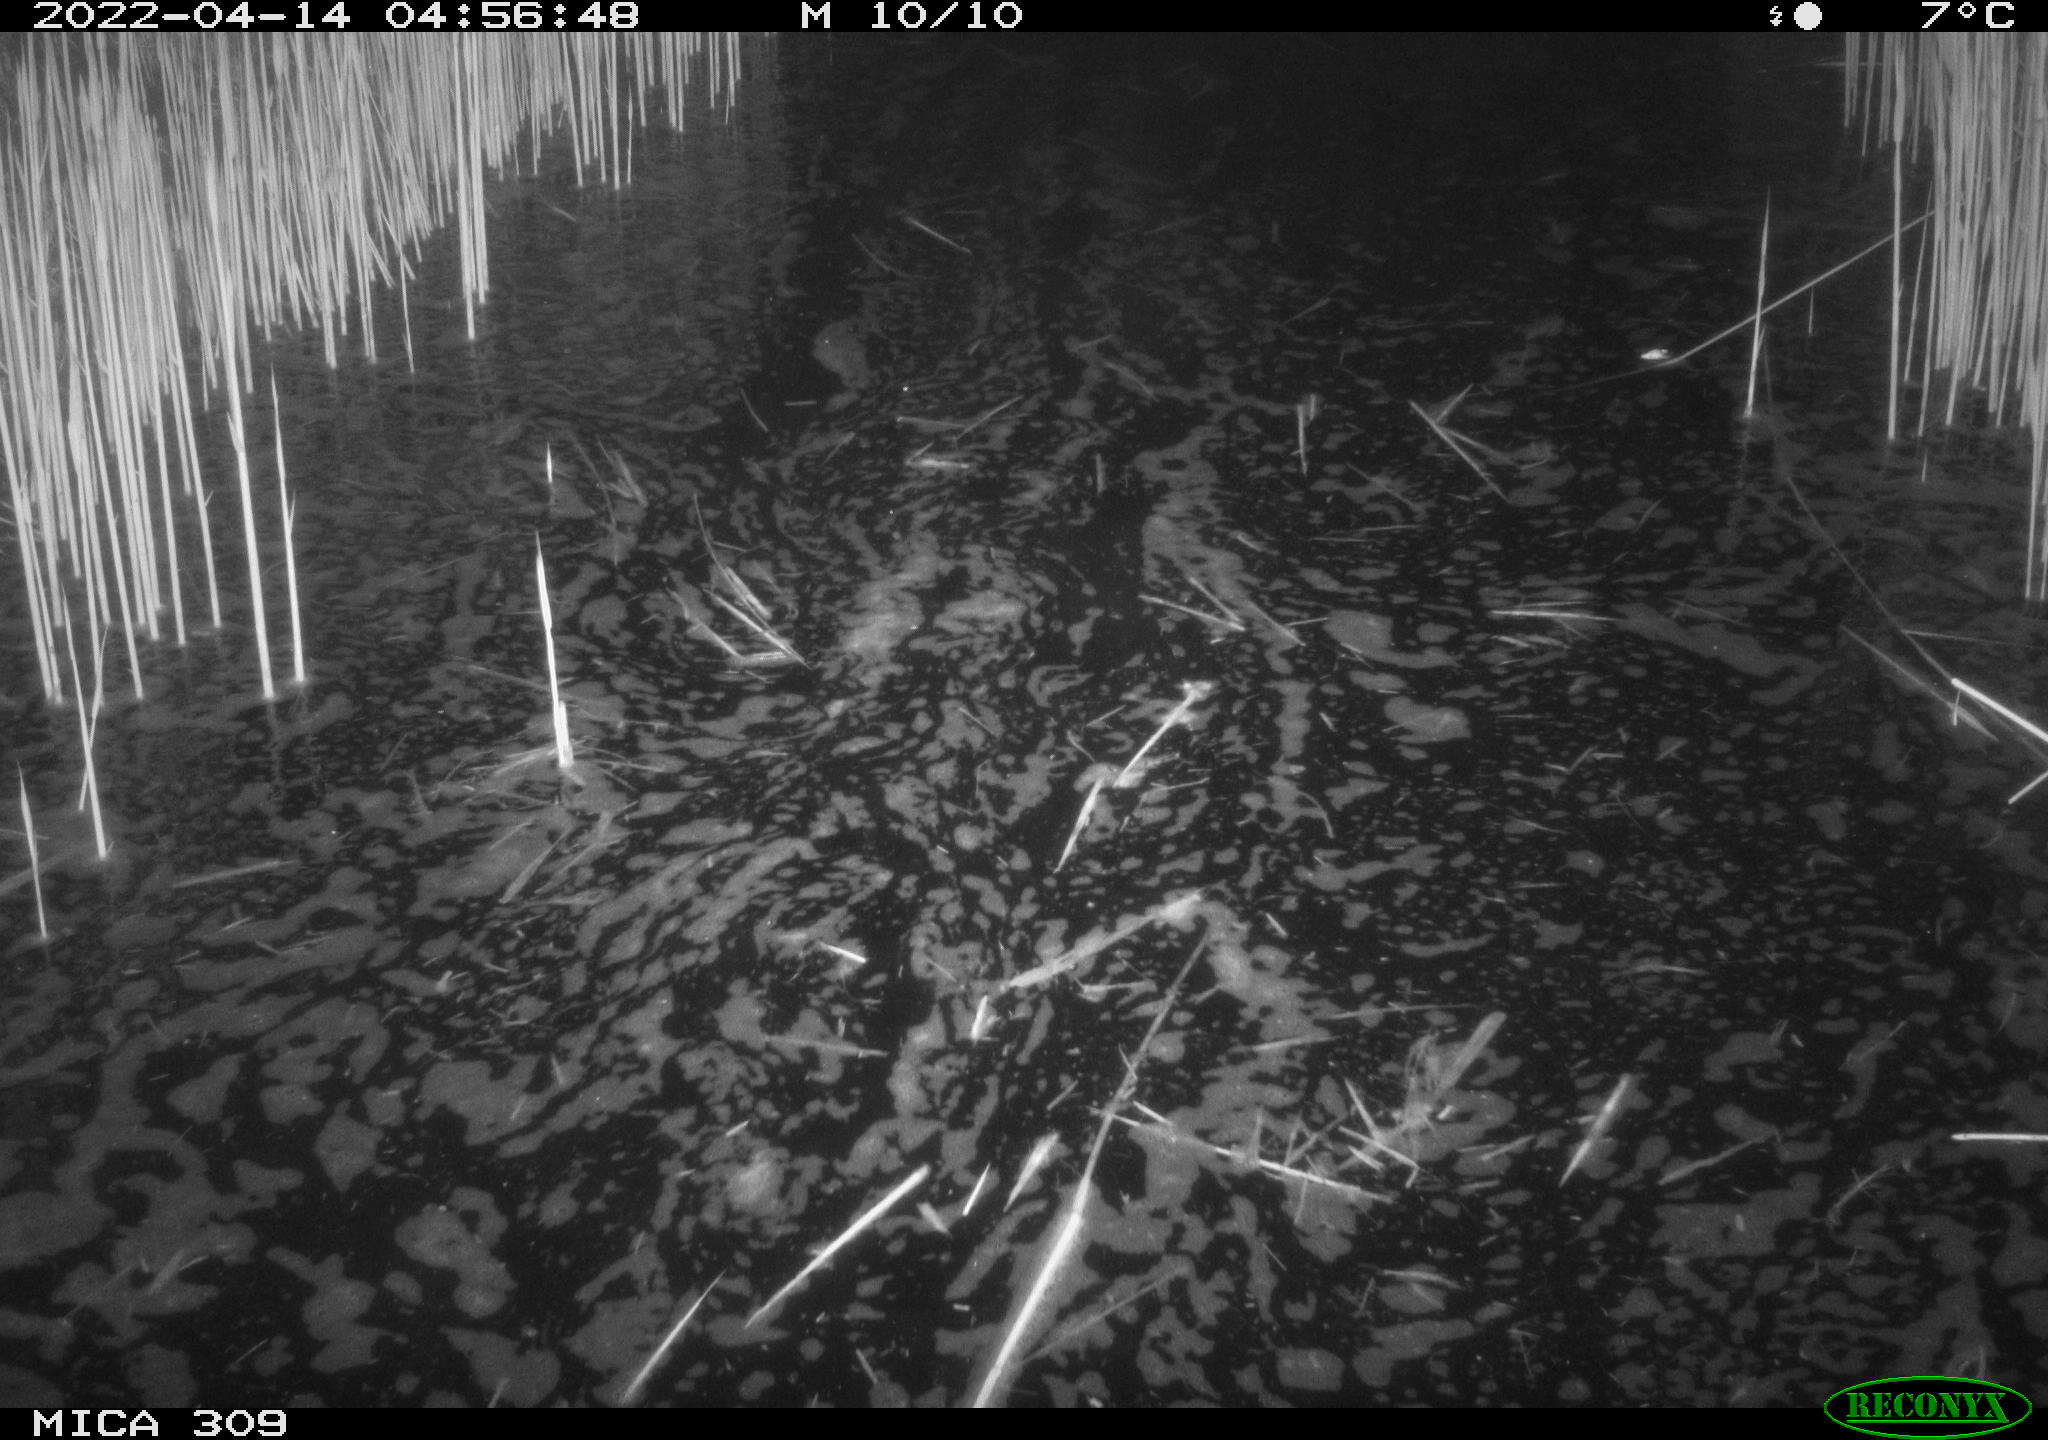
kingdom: Animalia
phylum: Chordata
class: Aves
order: Anseriformes
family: Anatidae
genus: Anas
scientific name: Anas platyrhynchos
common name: Mallard
